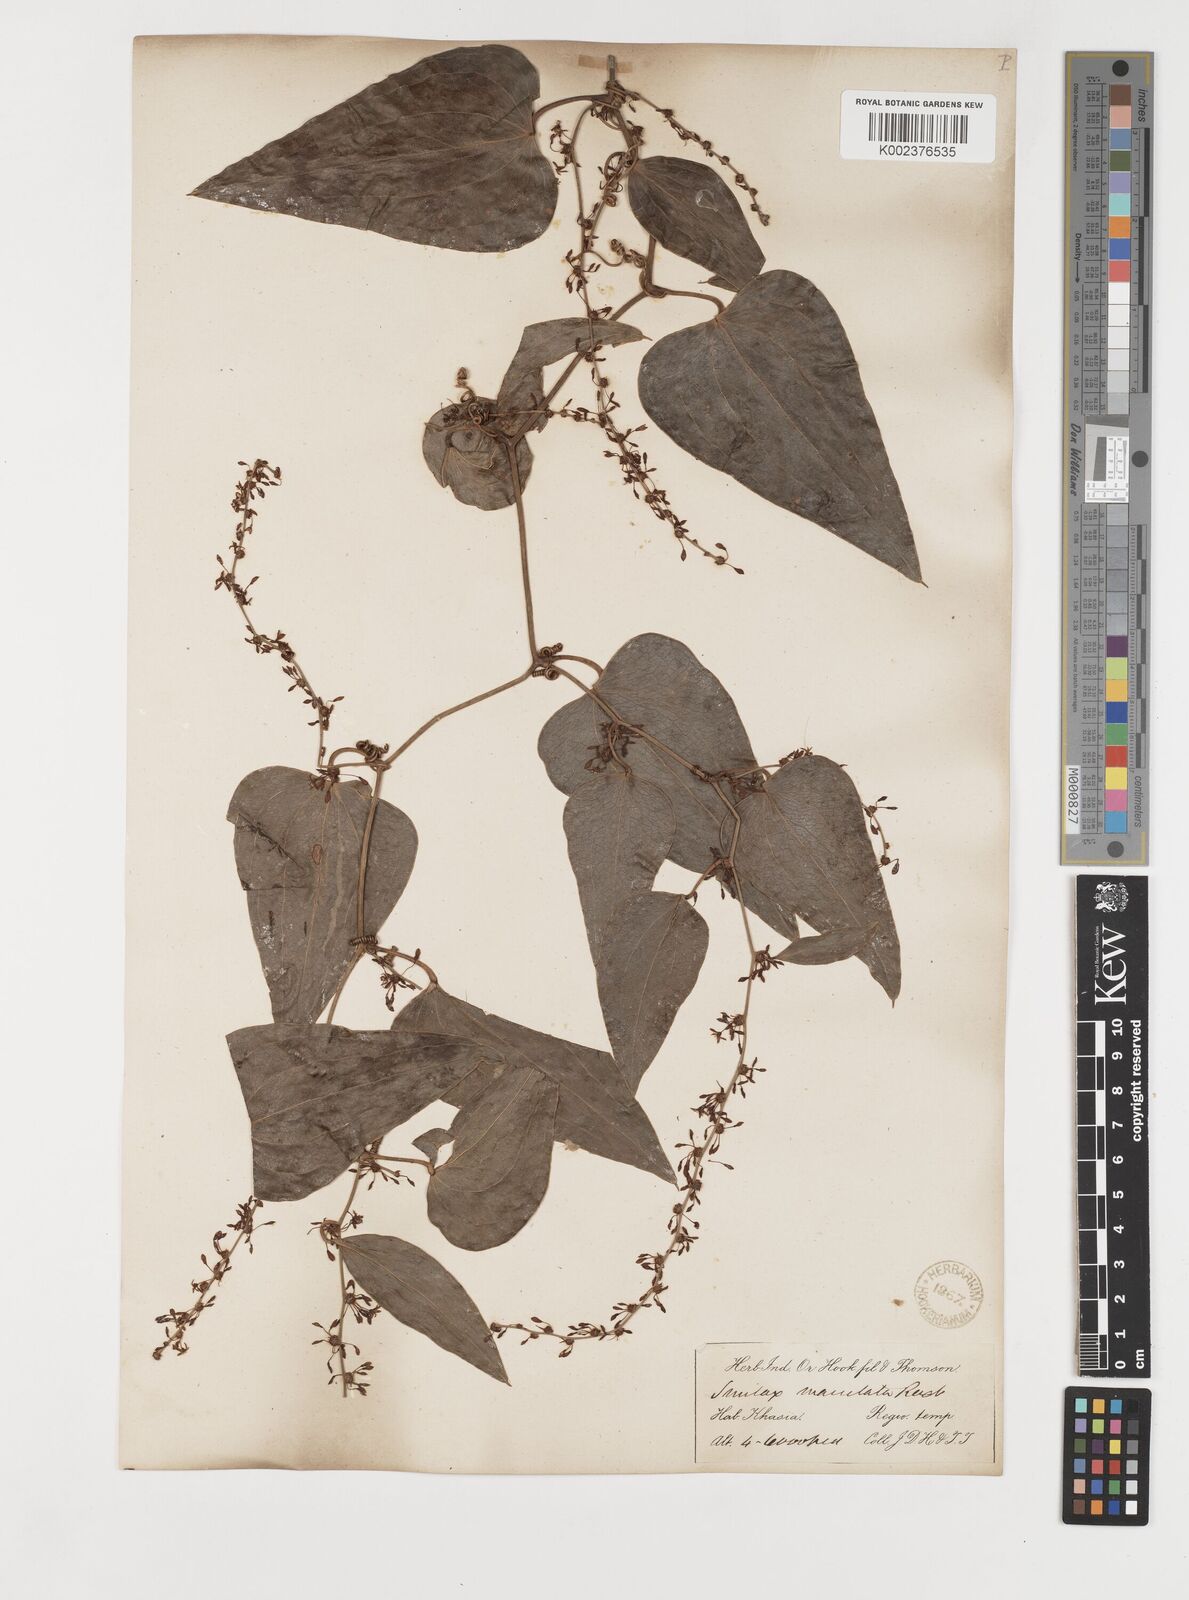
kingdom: Plantae
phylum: Tracheophyta
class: Liliopsida
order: Liliales
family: Smilacaceae
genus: Smilax
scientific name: Smilax aspera
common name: Common smilax
